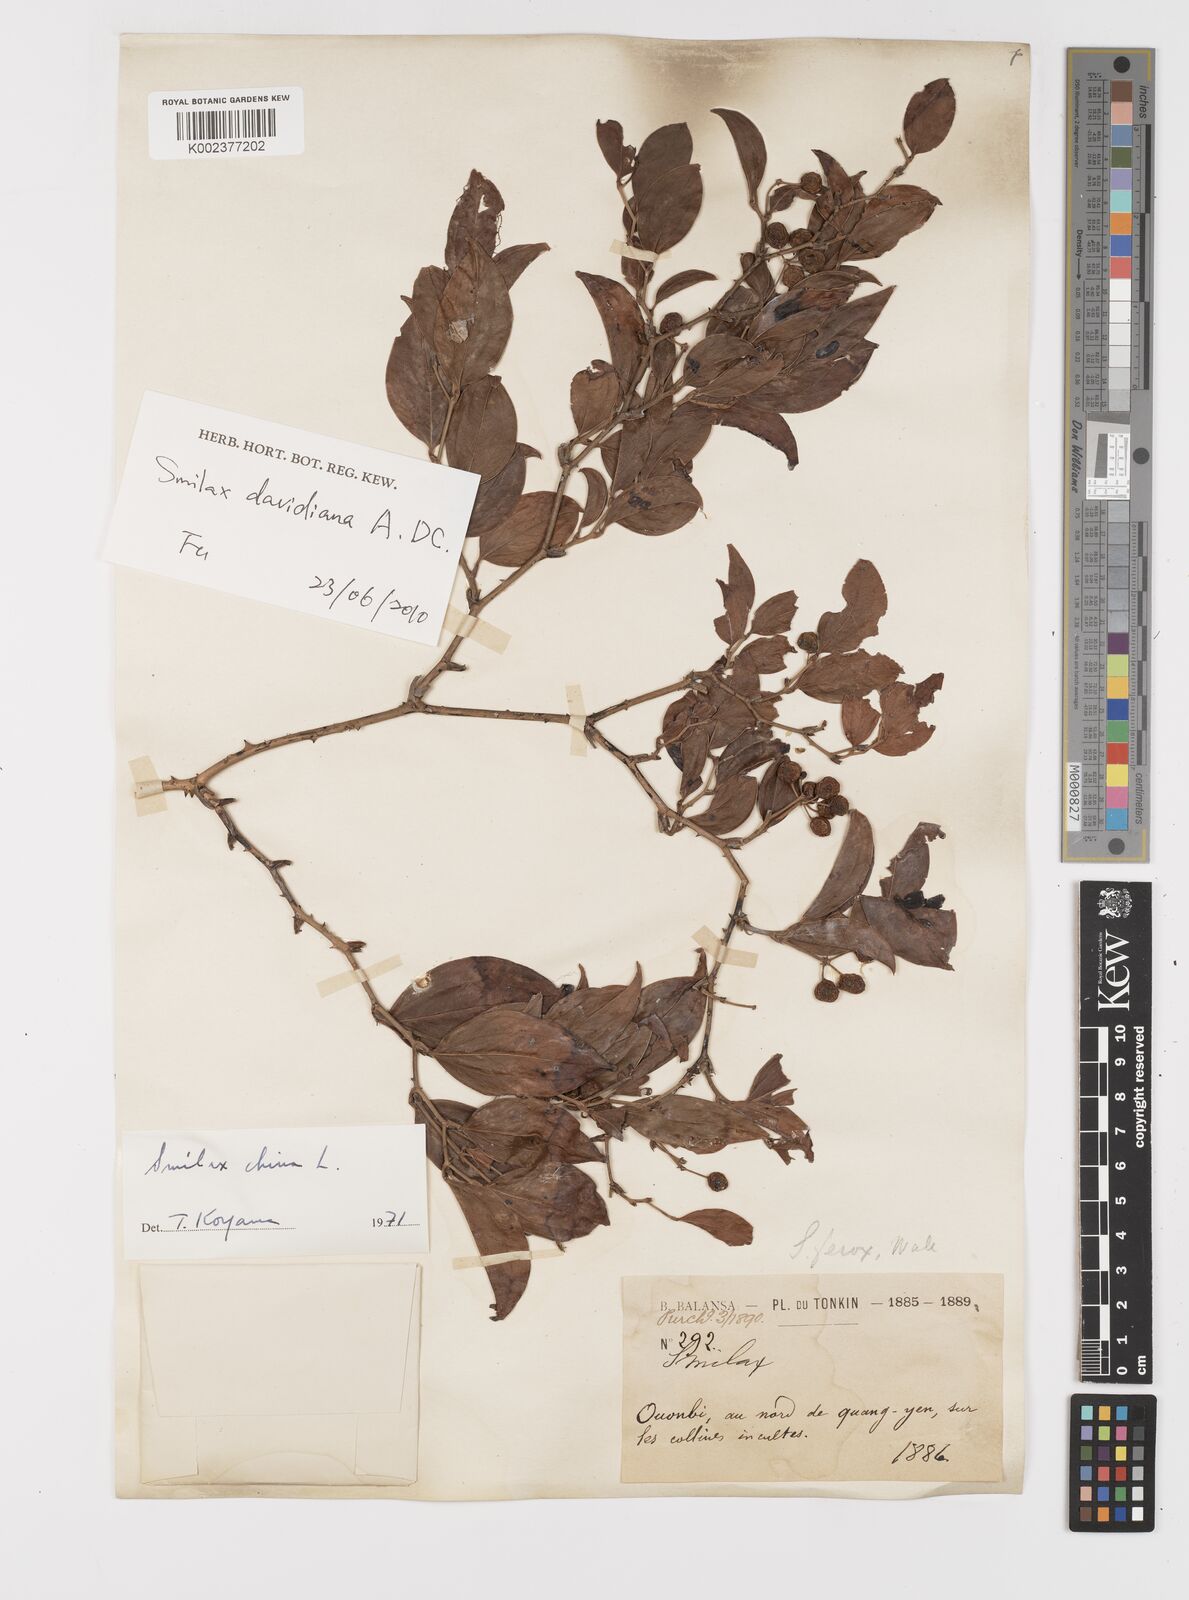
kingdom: Plantae
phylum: Tracheophyta
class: Liliopsida
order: Liliales
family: Smilacaceae
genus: Smilax
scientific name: Smilax ferox
